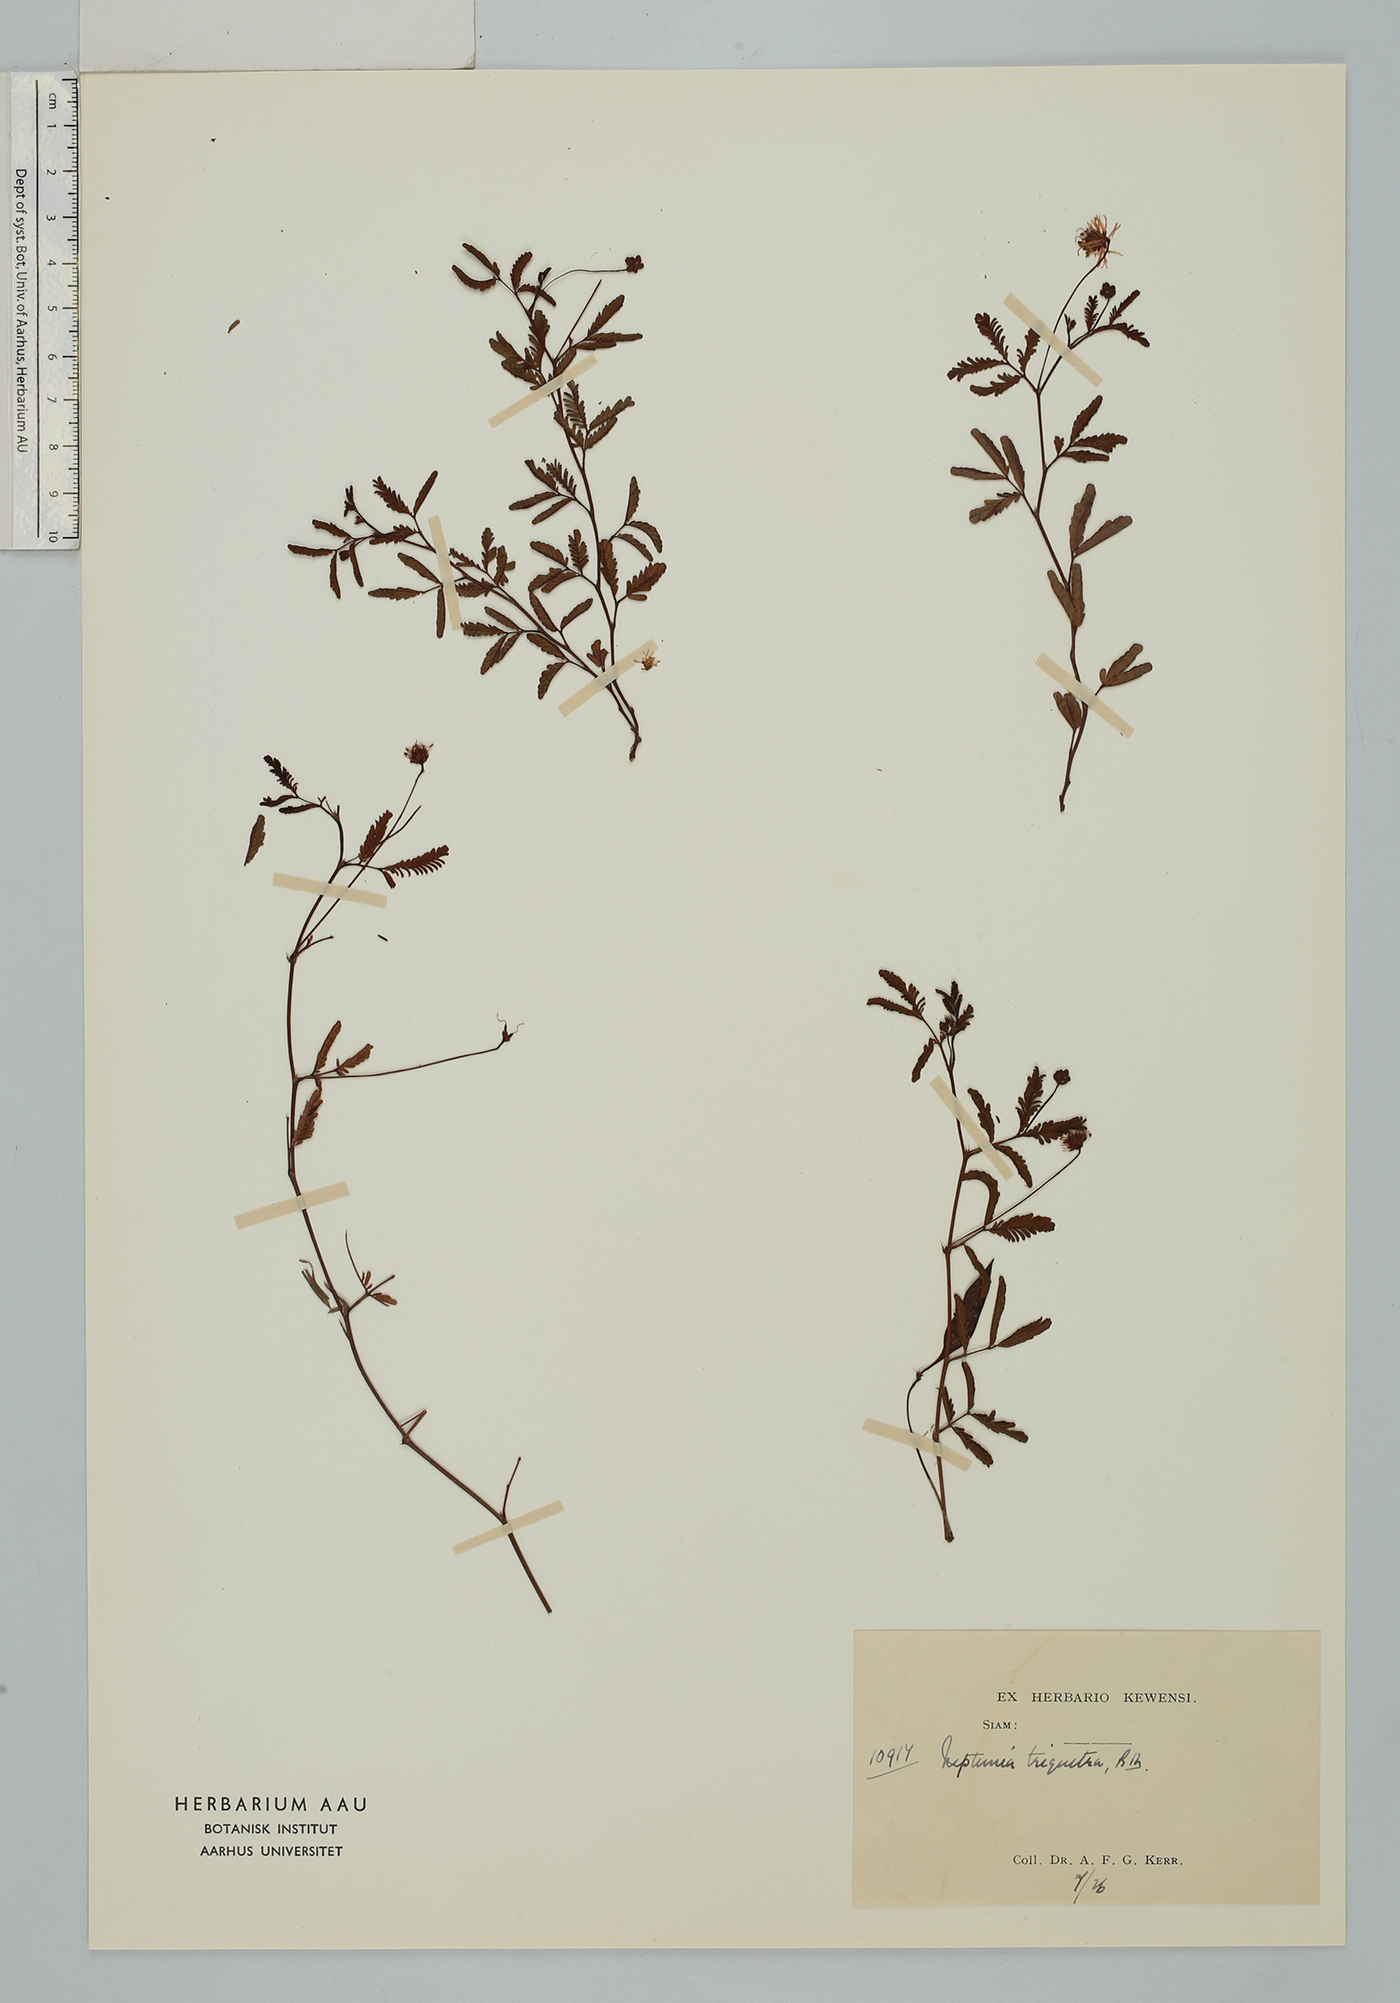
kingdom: Plantae
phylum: Tracheophyta
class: Magnoliopsida
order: Fabales
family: Fabaceae
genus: Neptunia
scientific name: Neptunia triquetra
